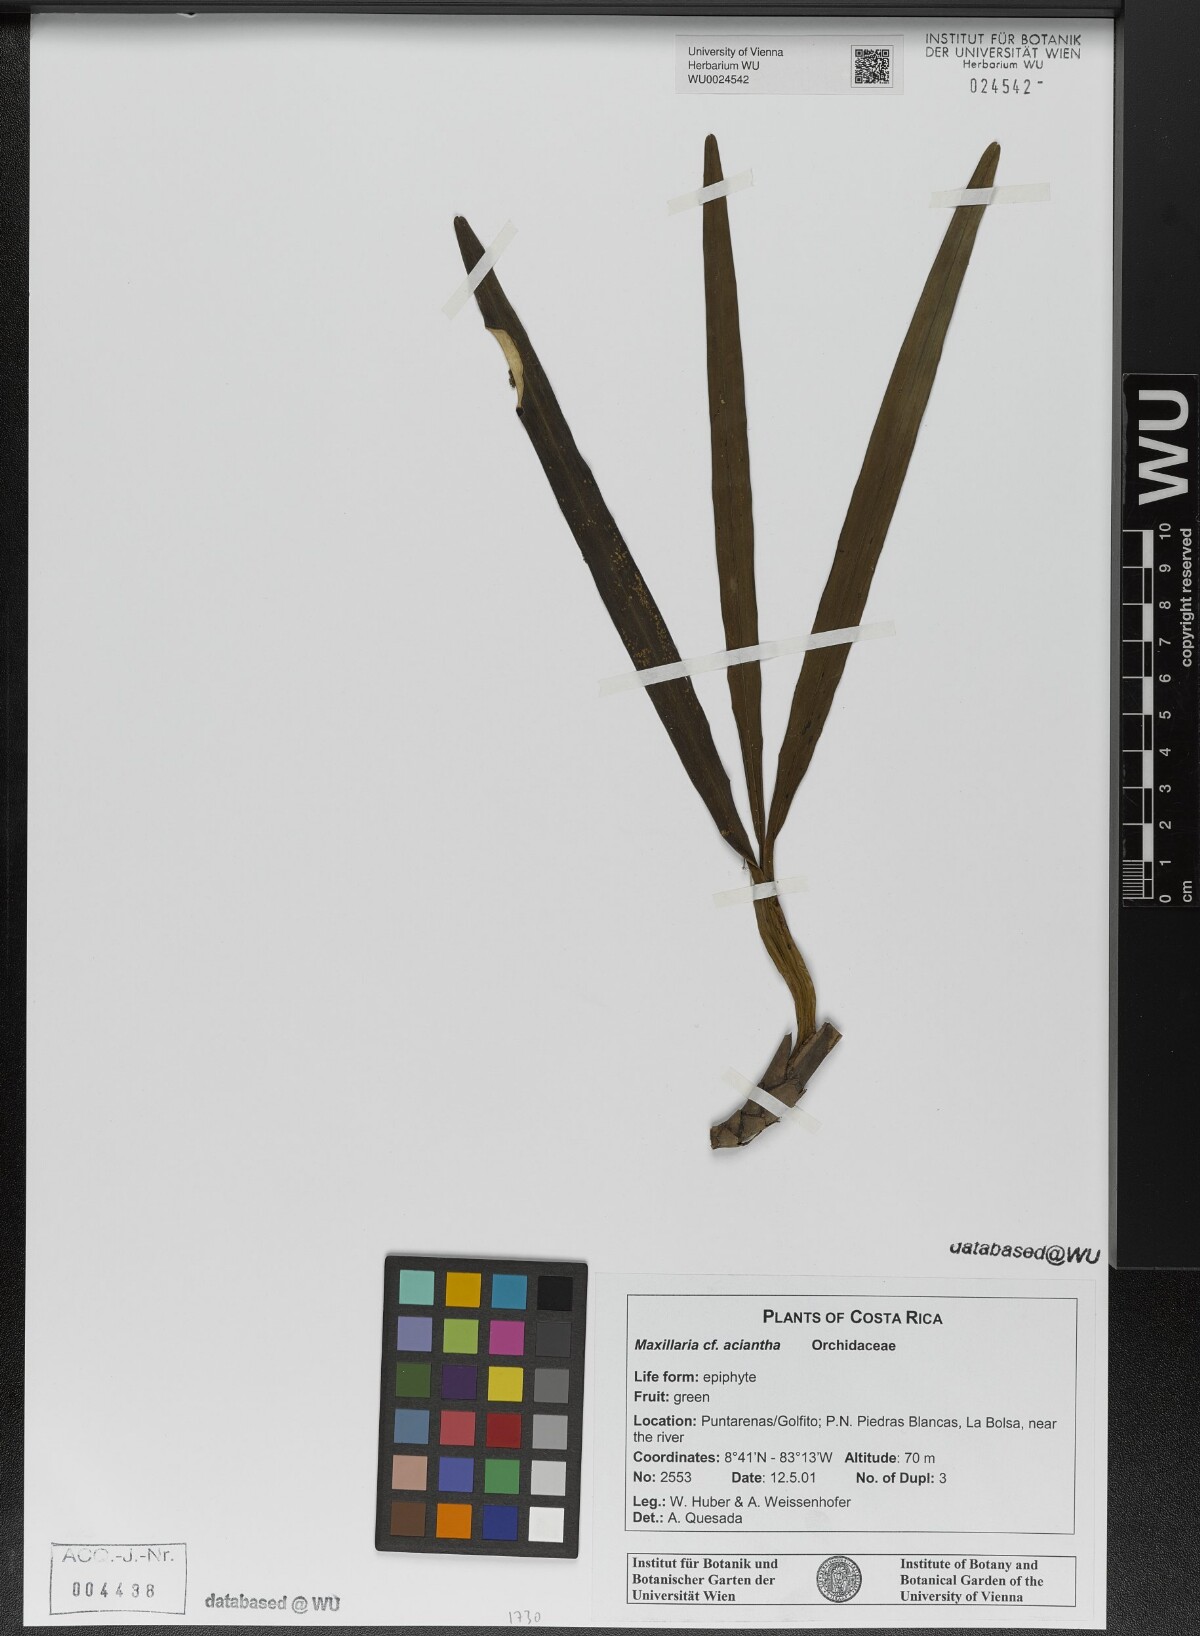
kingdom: Plantae
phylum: Tracheophyta
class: Liliopsida
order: Asparagales
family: Orchidaceae
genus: Maxillaria
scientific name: Maxillaria aciantha
